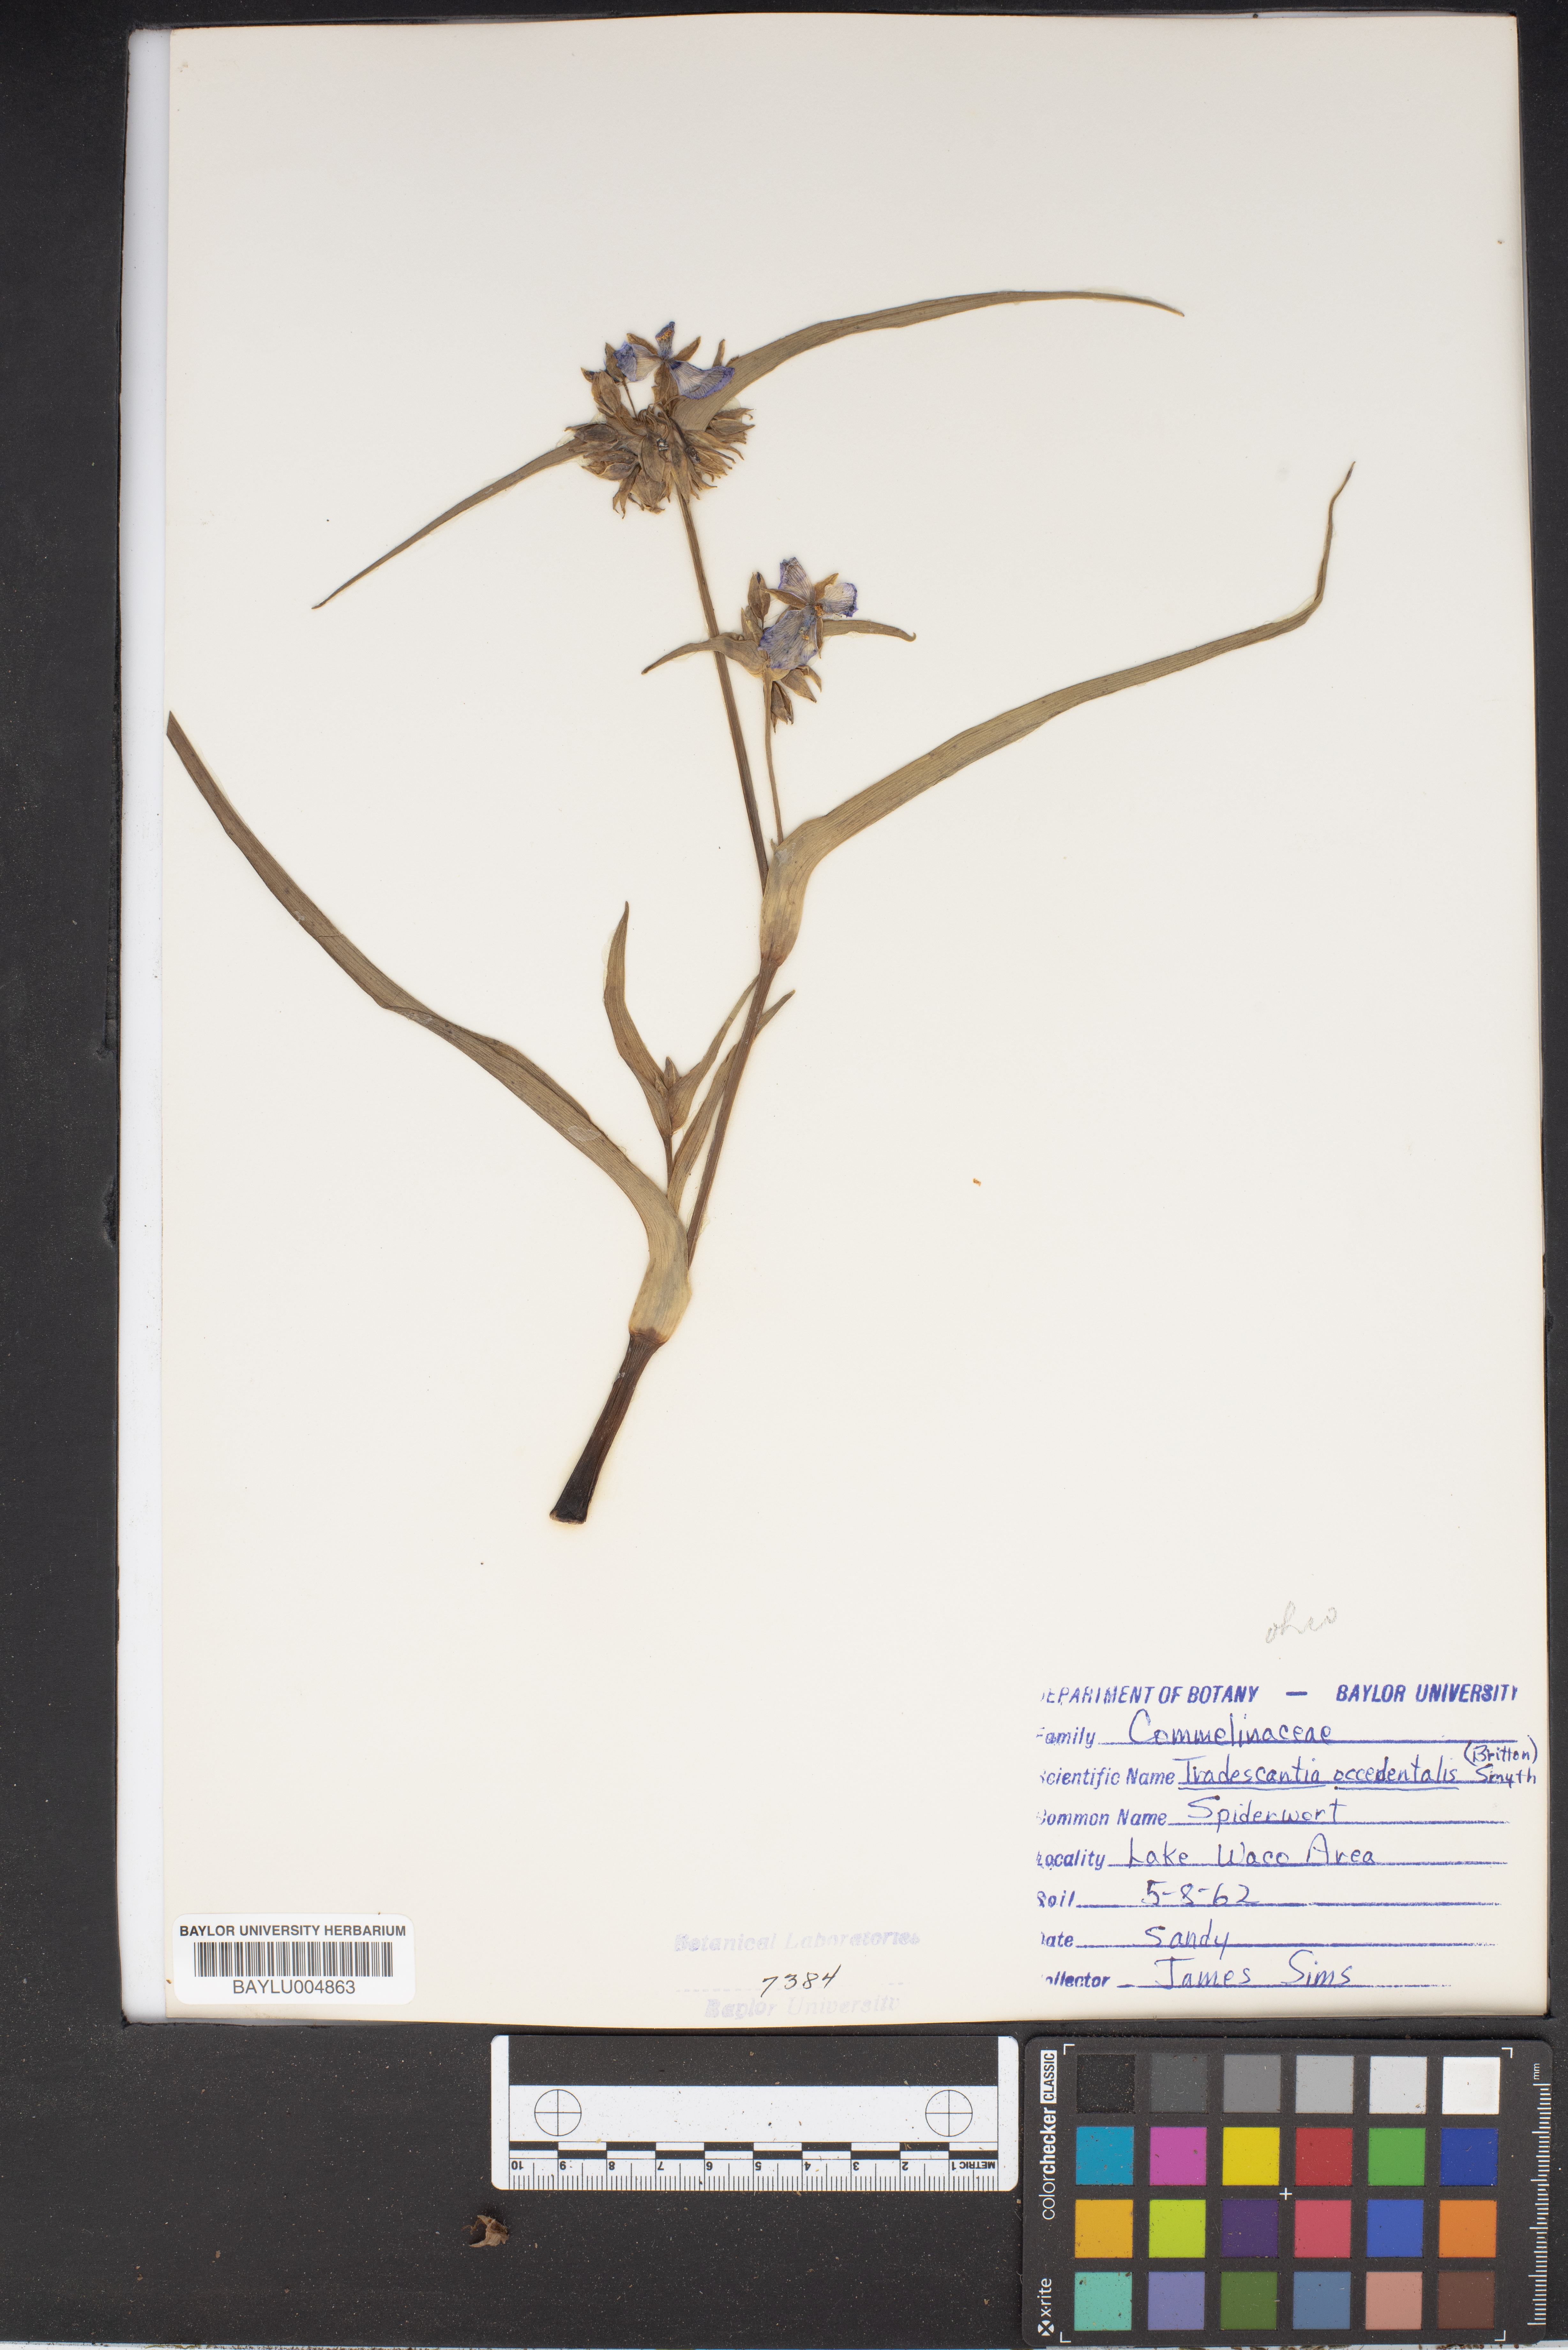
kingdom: Plantae
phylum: Tracheophyta
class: Liliopsida
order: Commelinales
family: Commelinaceae
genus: Tradescantia
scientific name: Tradescantia occidentalis
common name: Prairie spiderwort
